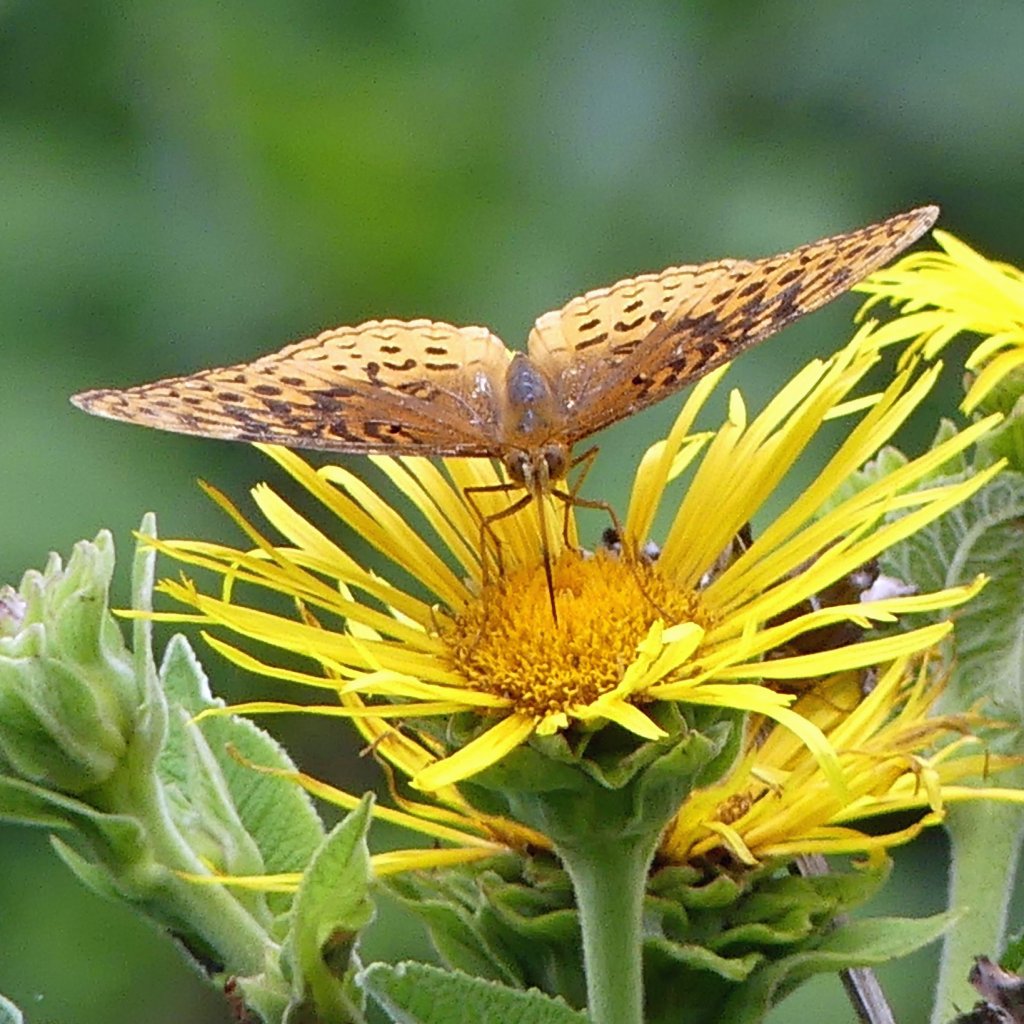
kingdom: Animalia
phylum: Arthropoda
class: Insecta
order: Lepidoptera
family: Nymphalidae
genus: Speyeria
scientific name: Speyeria cybele
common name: Great Spangled Fritillary
